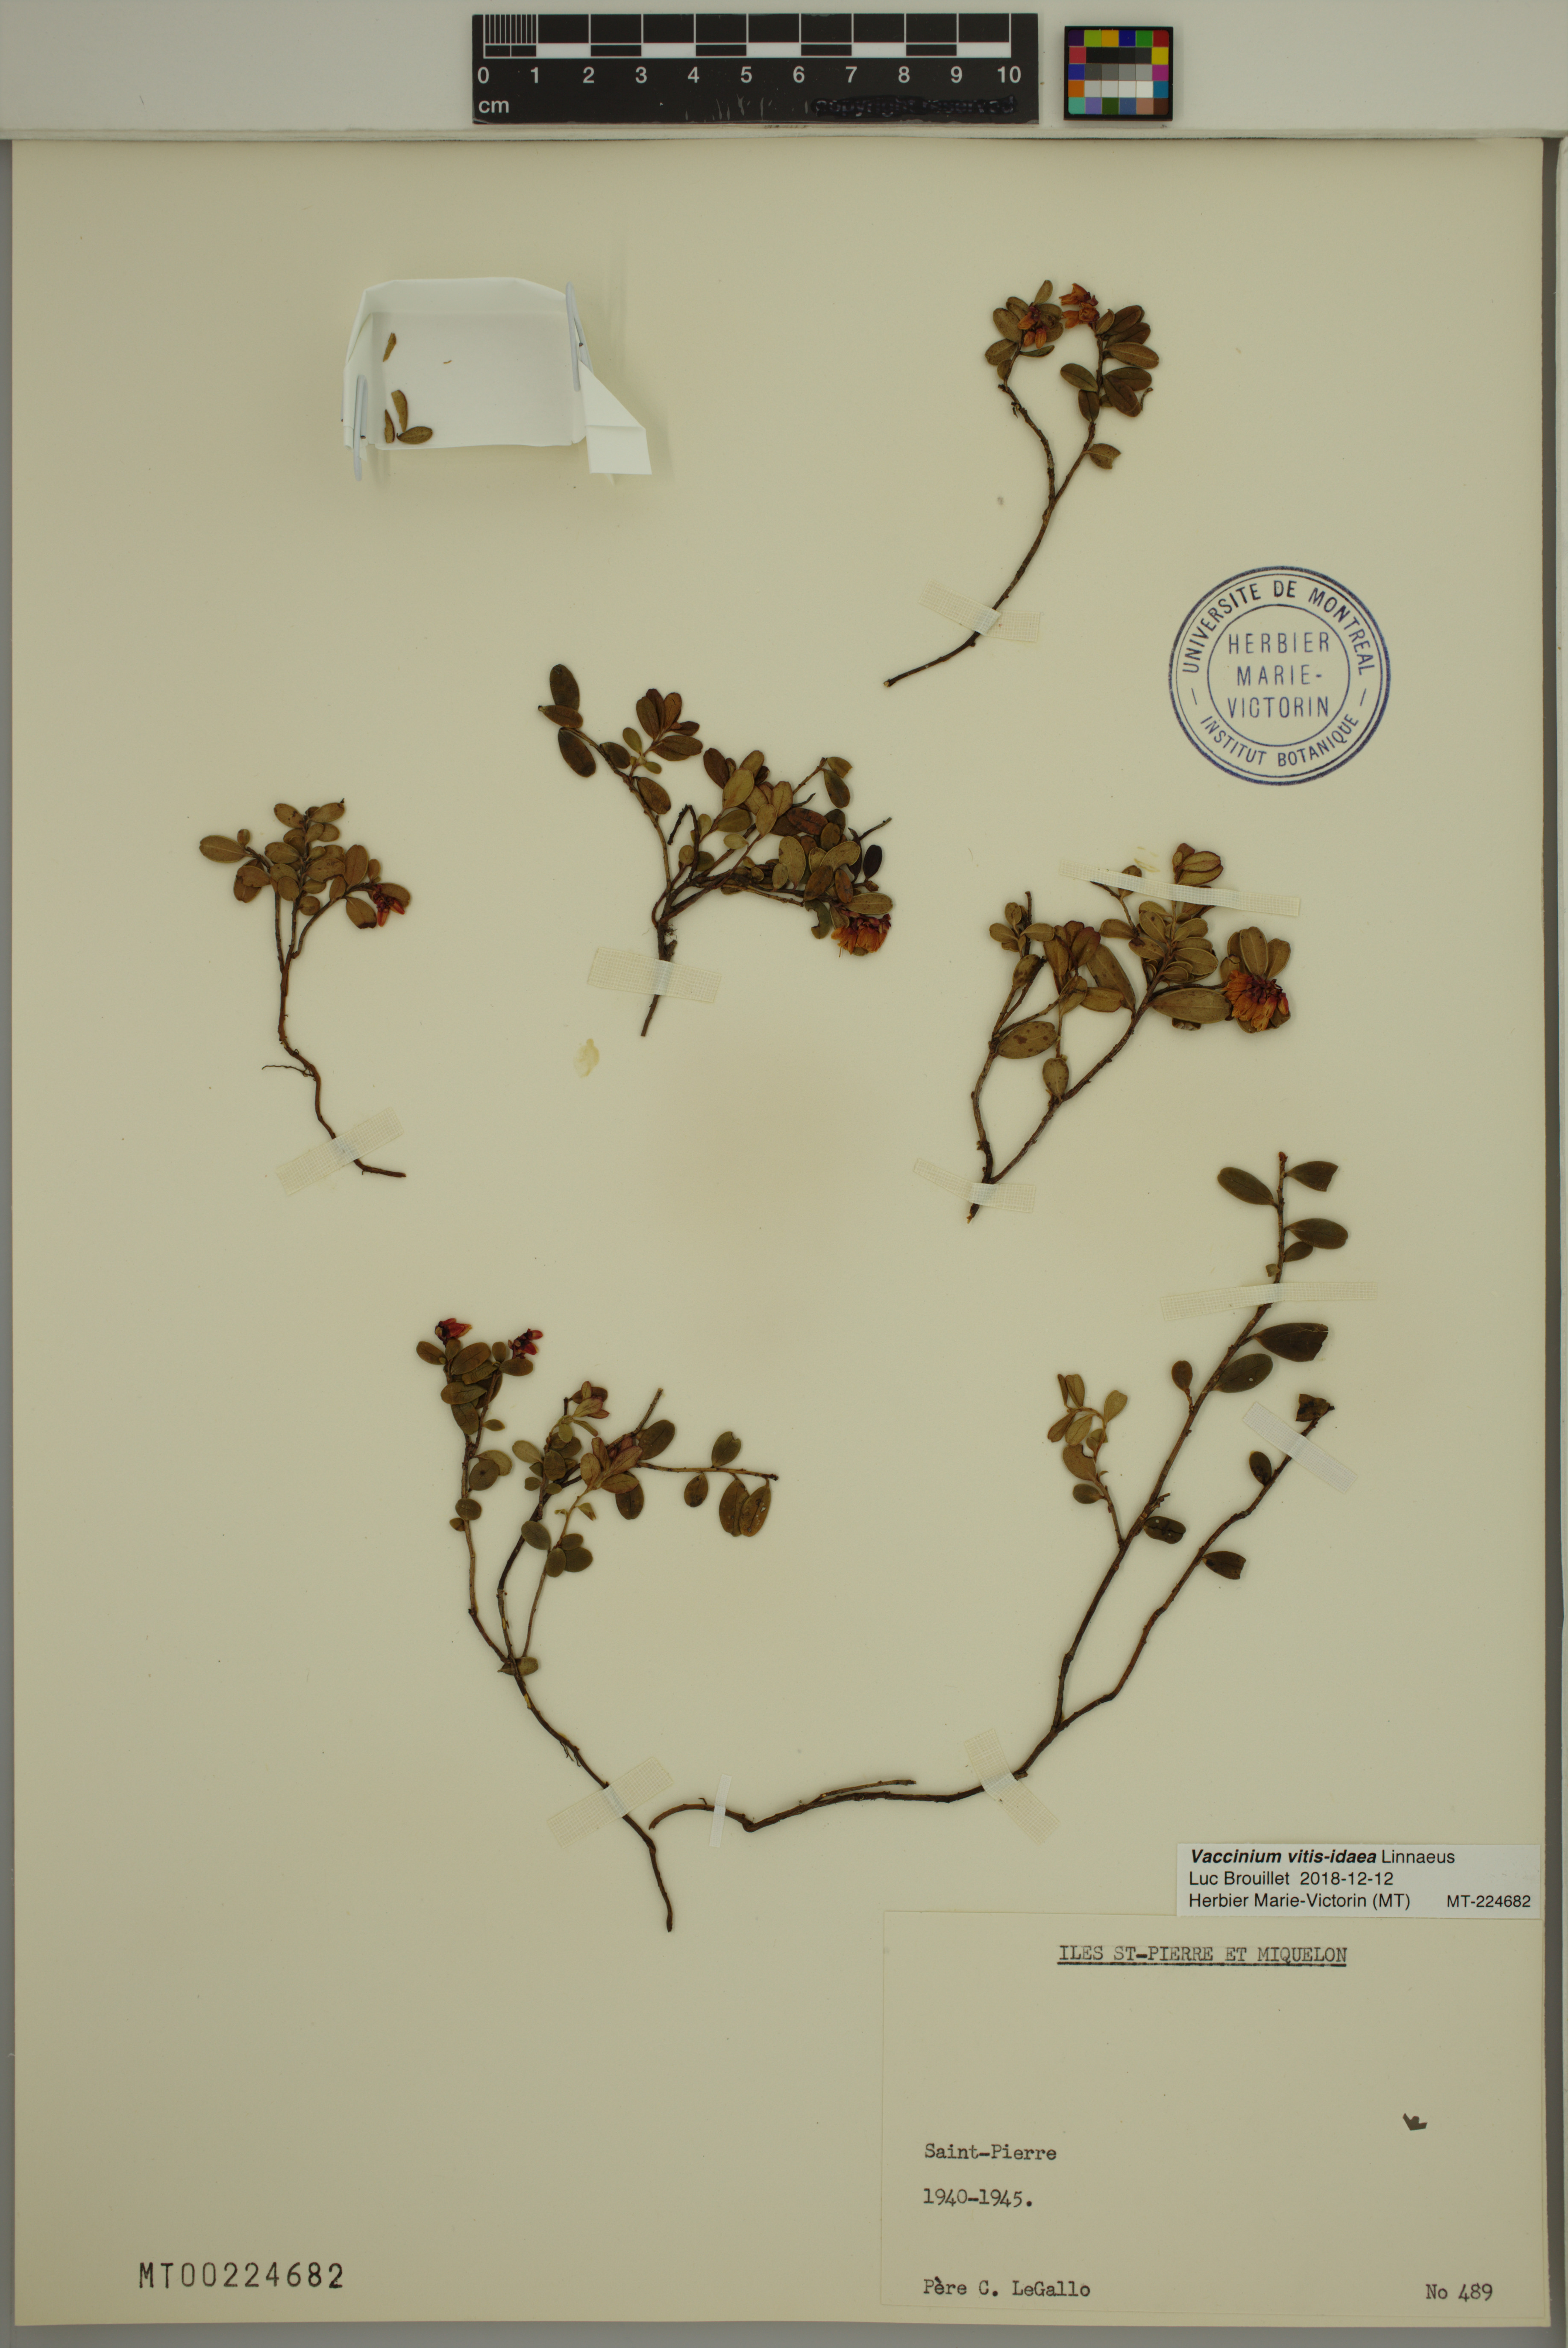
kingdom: Plantae
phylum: Tracheophyta
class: Magnoliopsida
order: Ericales
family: Ericaceae
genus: Vaccinium
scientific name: Vaccinium vitis-idaea
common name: Cowberry
